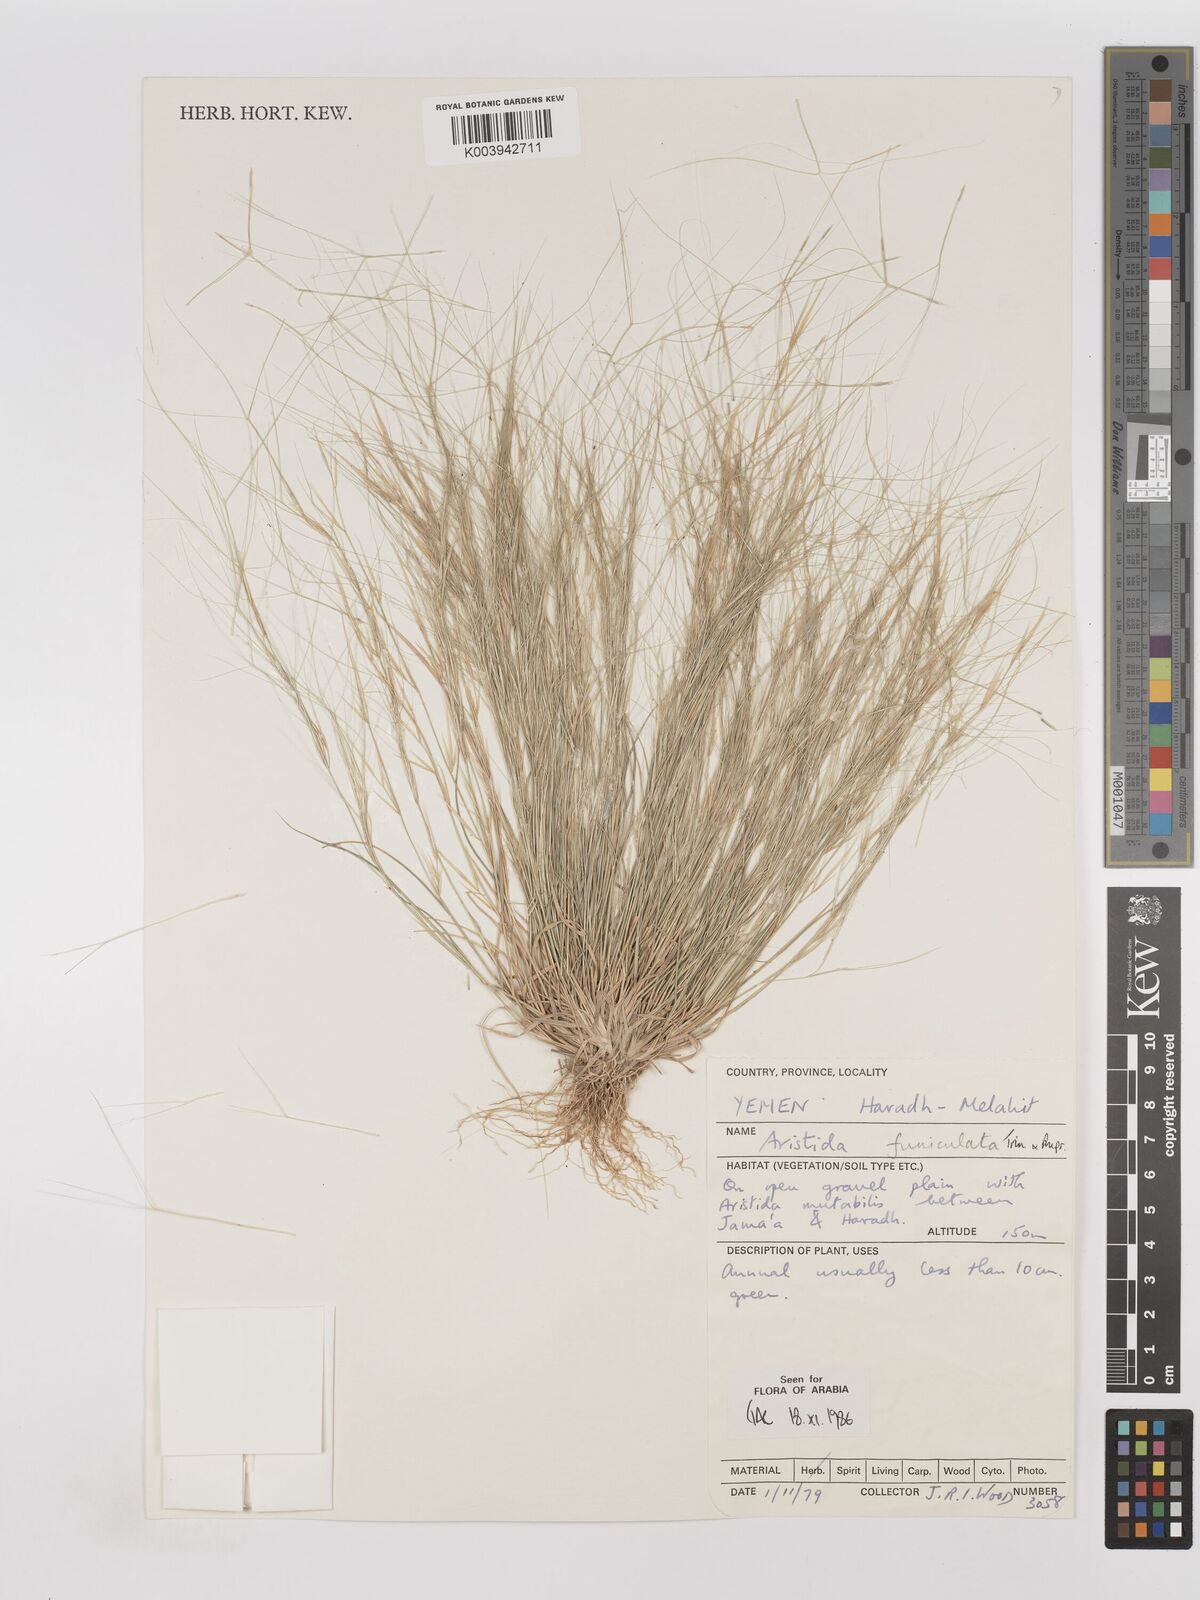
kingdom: Plantae
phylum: Tracheophyta
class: Liliopsida
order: Poales
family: Poaceae
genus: Aristida
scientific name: Aristida funiculata
